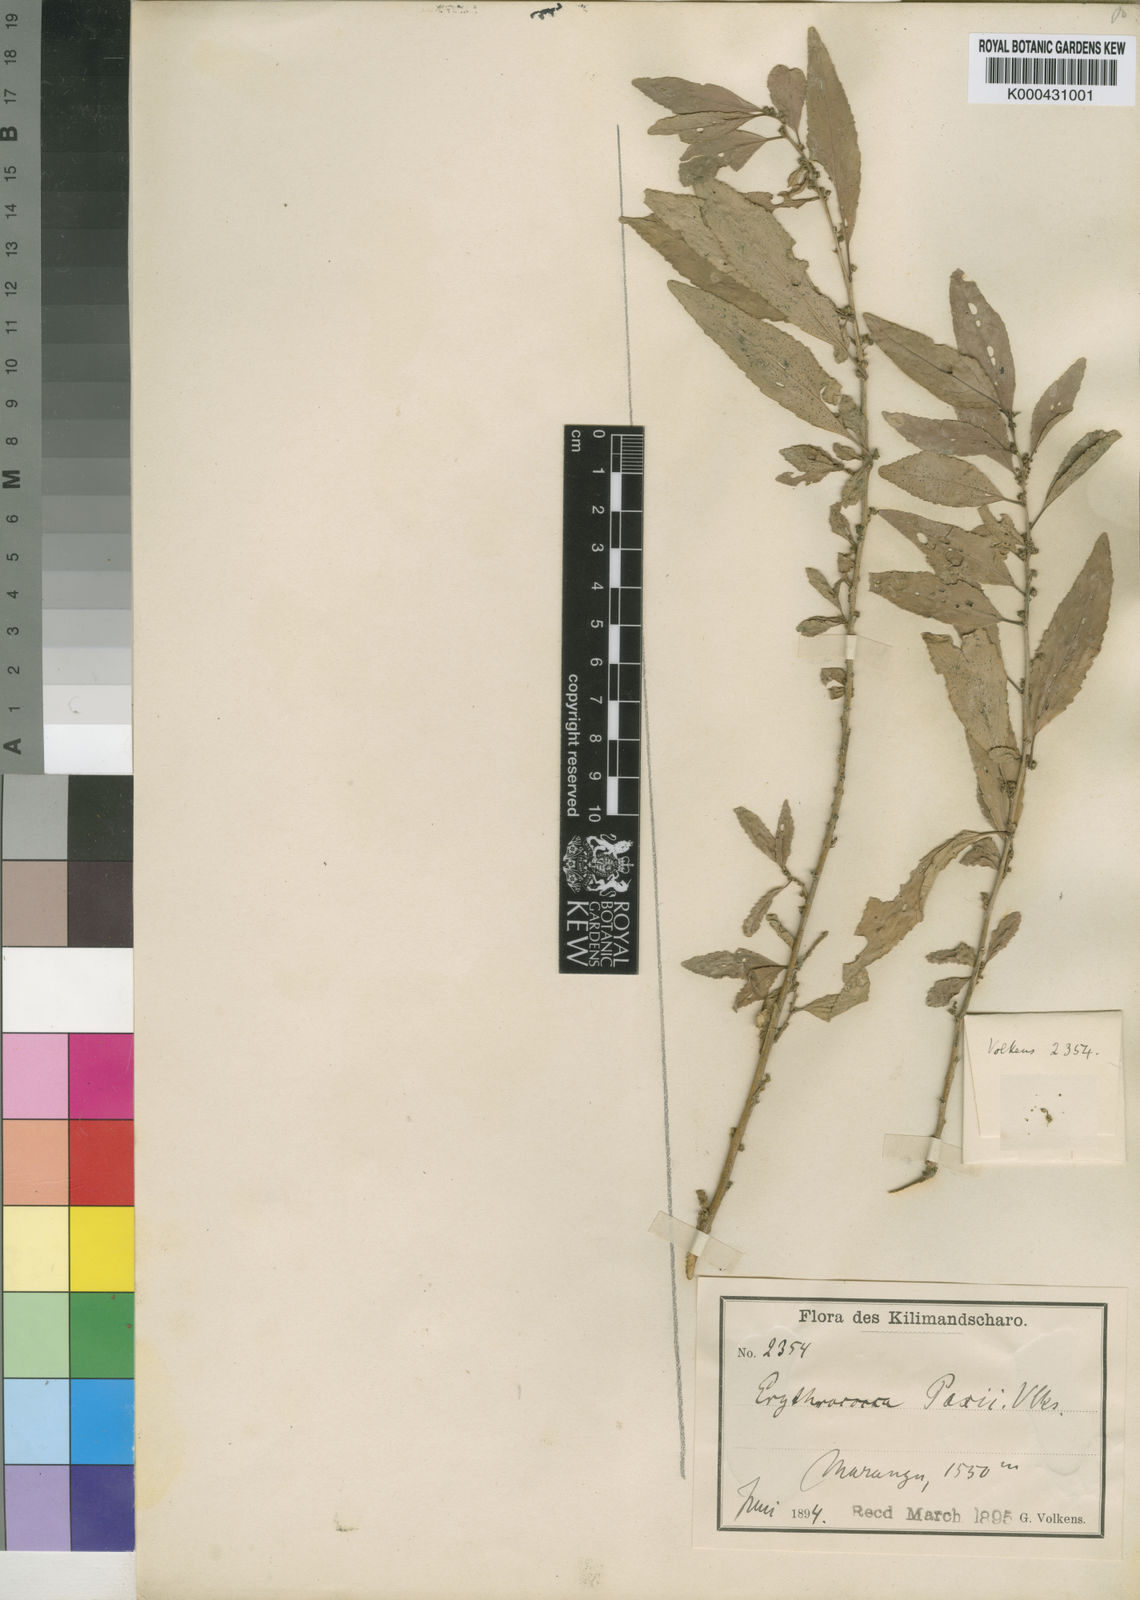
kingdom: Plantae
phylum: Tracheophyta
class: Magnoliopsida
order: Malpighiales
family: Euphorbiaceae
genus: Erythrococca
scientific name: Erythrococca bongensis
